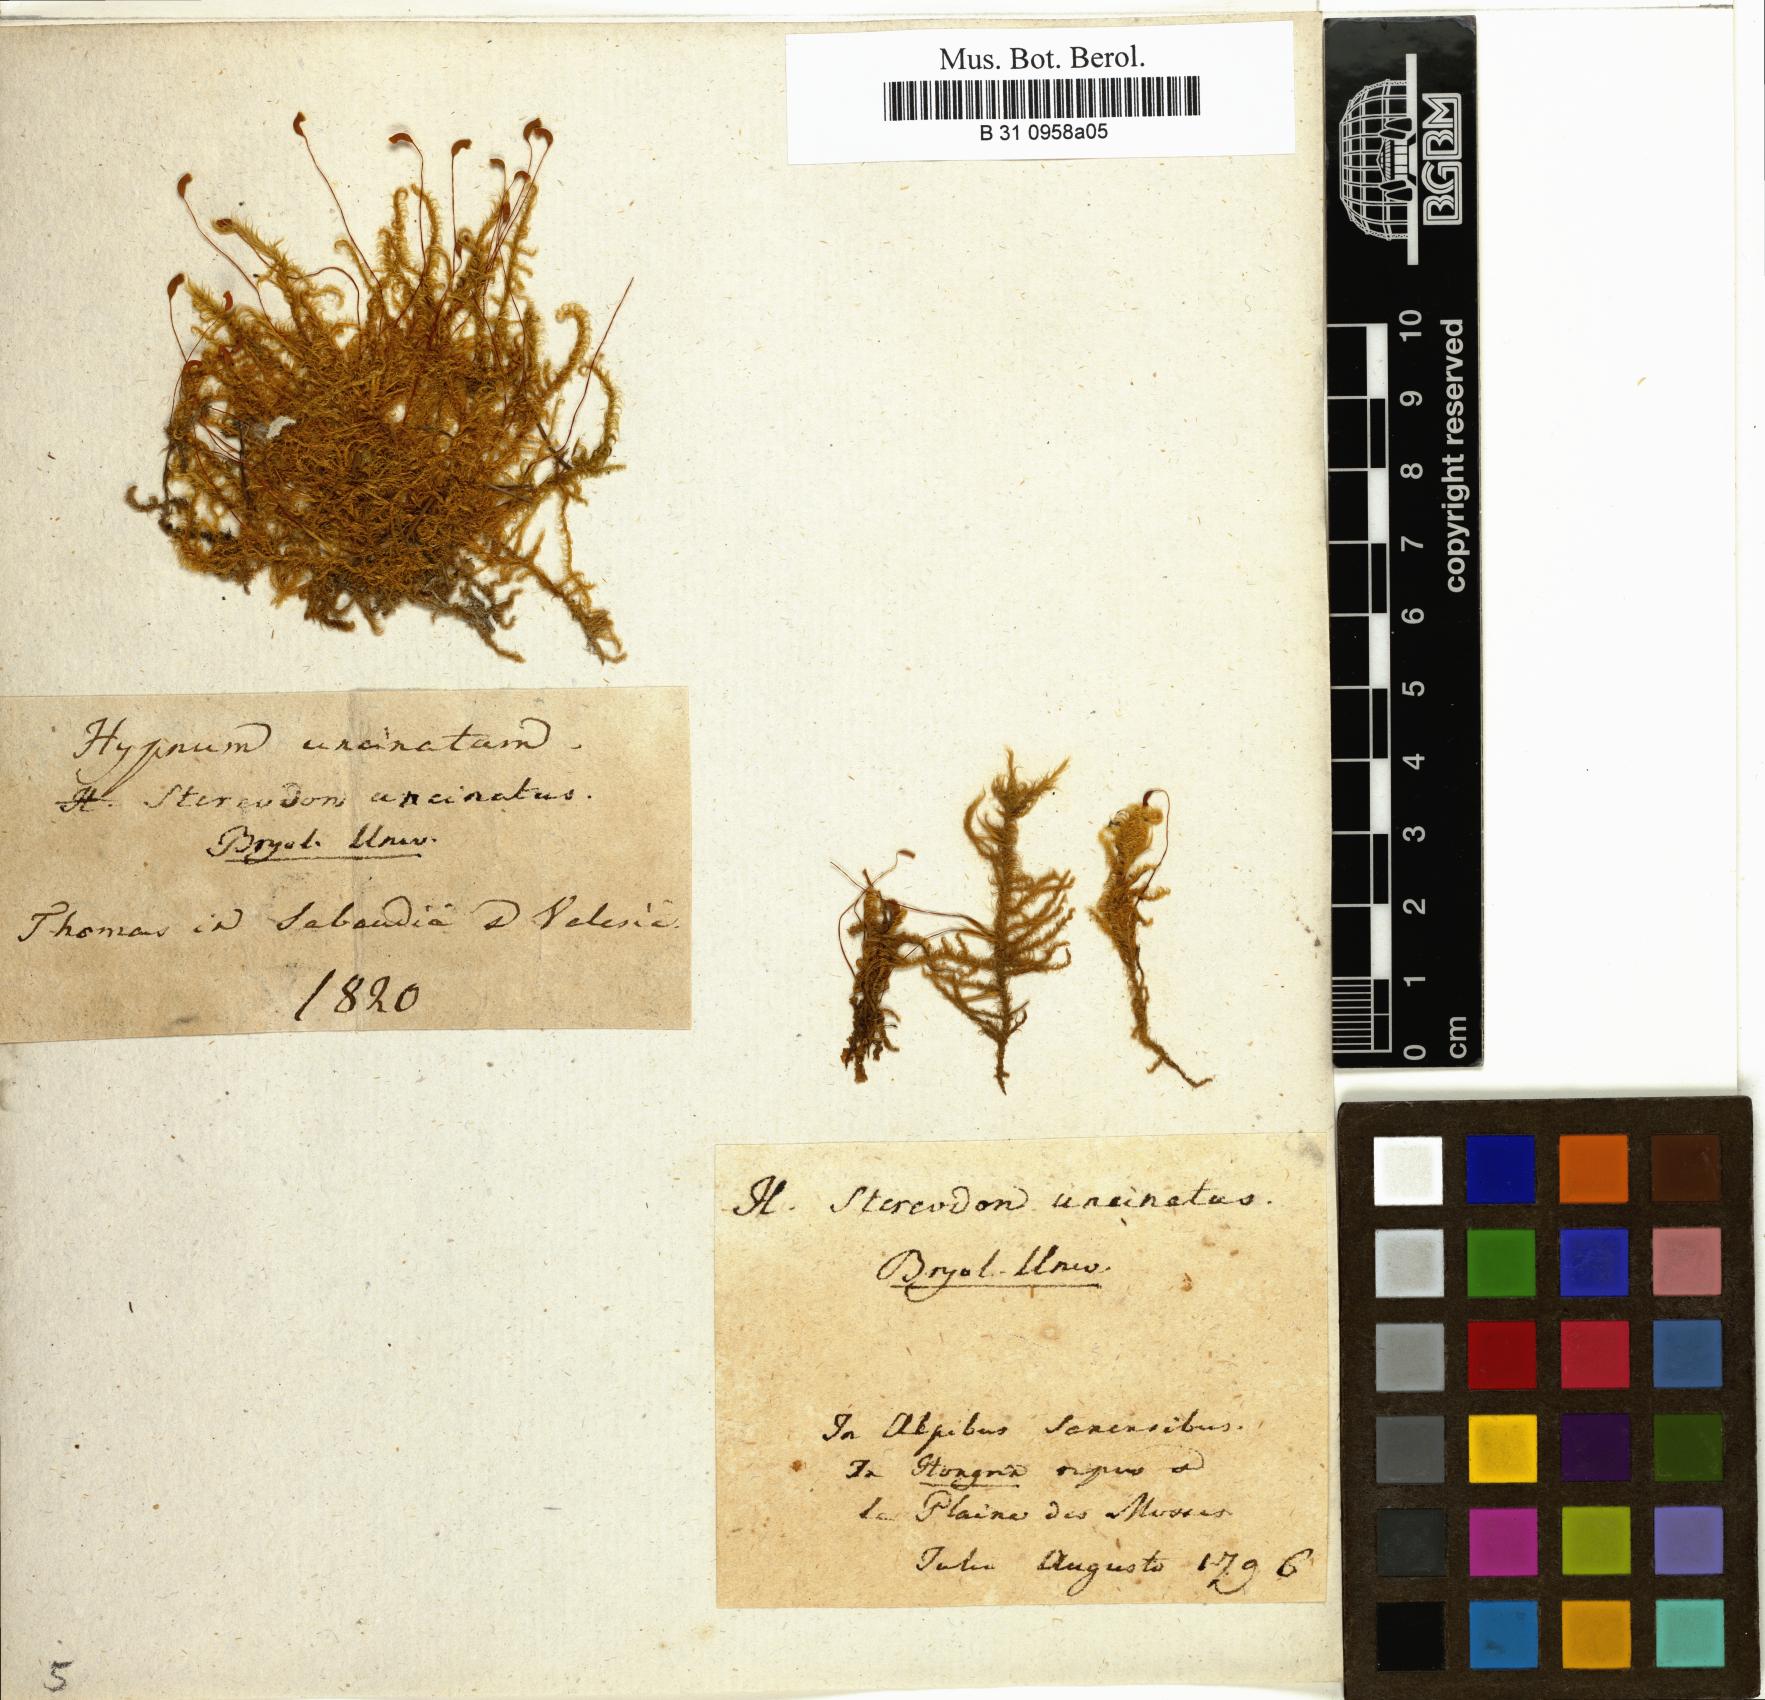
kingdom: Plantae
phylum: Bryophyta
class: Bryopsida
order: Hypnales
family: Scorpidiaceae
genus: Sanionia
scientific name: Sanionia uncinata
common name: Sickle moss
